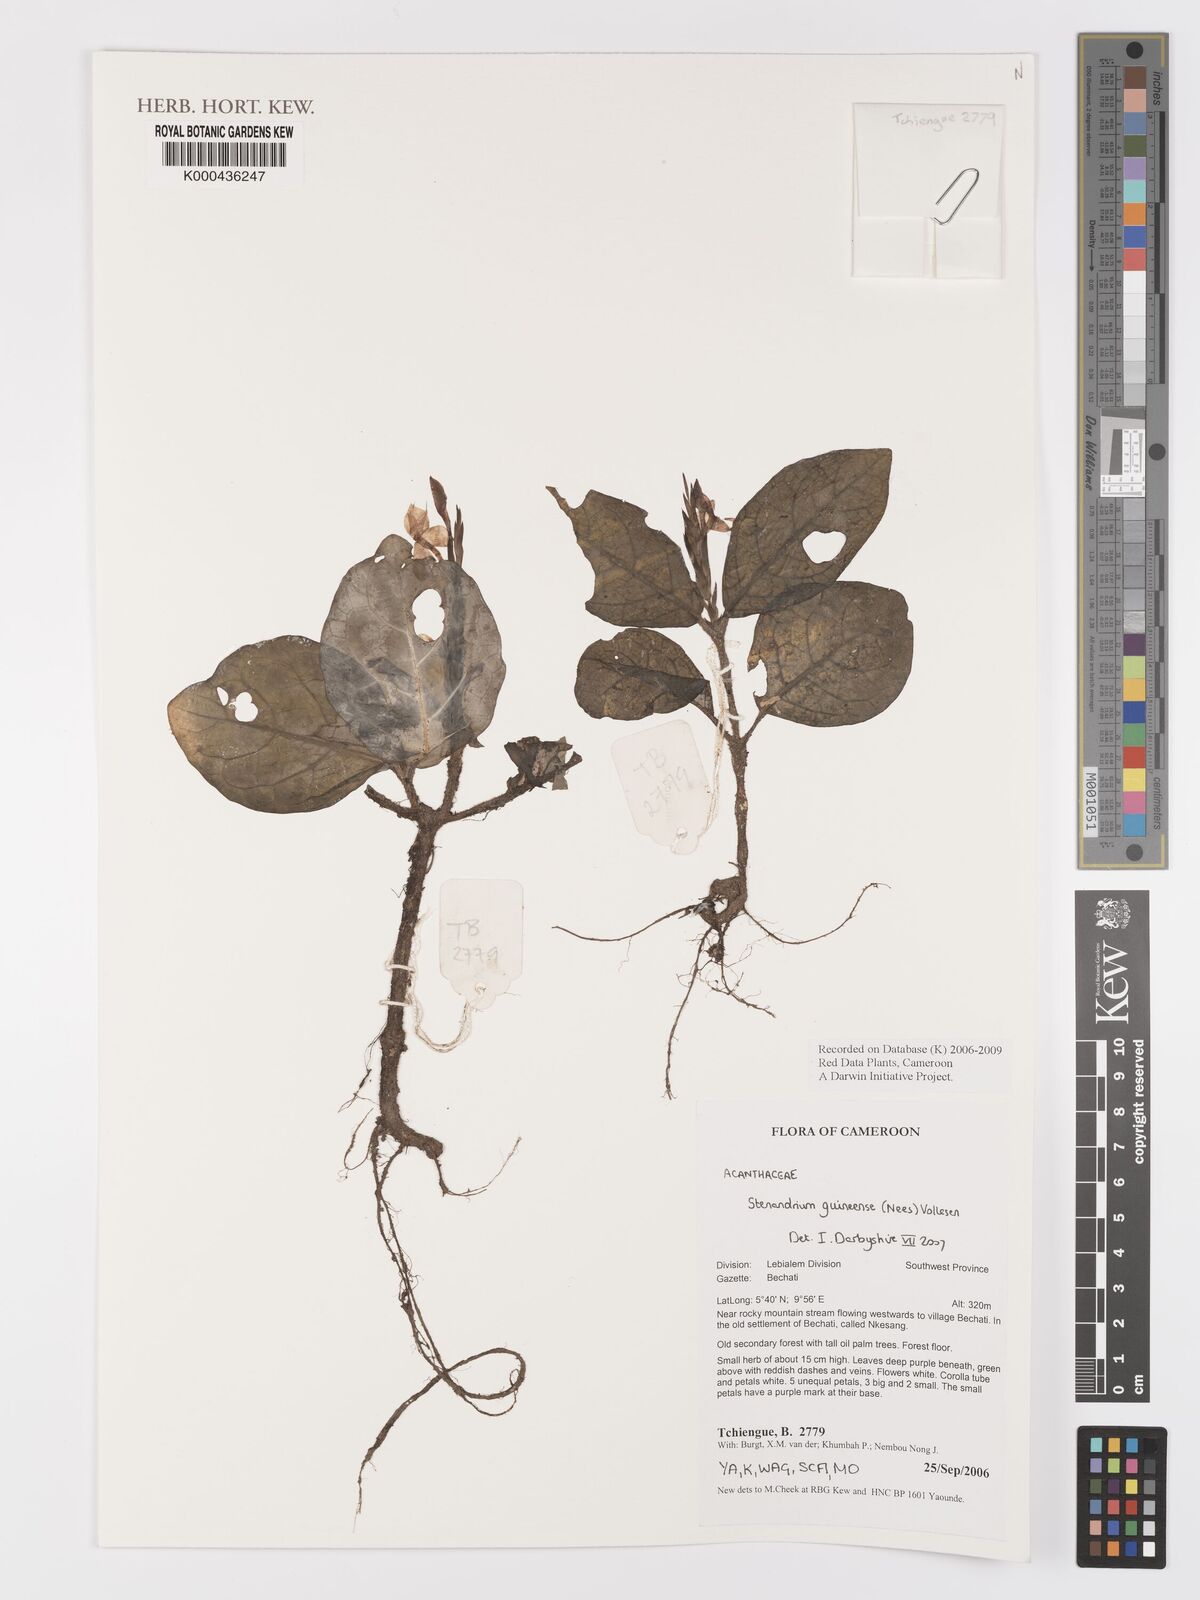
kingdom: Plantae
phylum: Tracheophyta
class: Magnoliopsida
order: Lamiales
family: Acanthaceae
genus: Stenandriopsis
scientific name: Stenandriopsis guineensis
